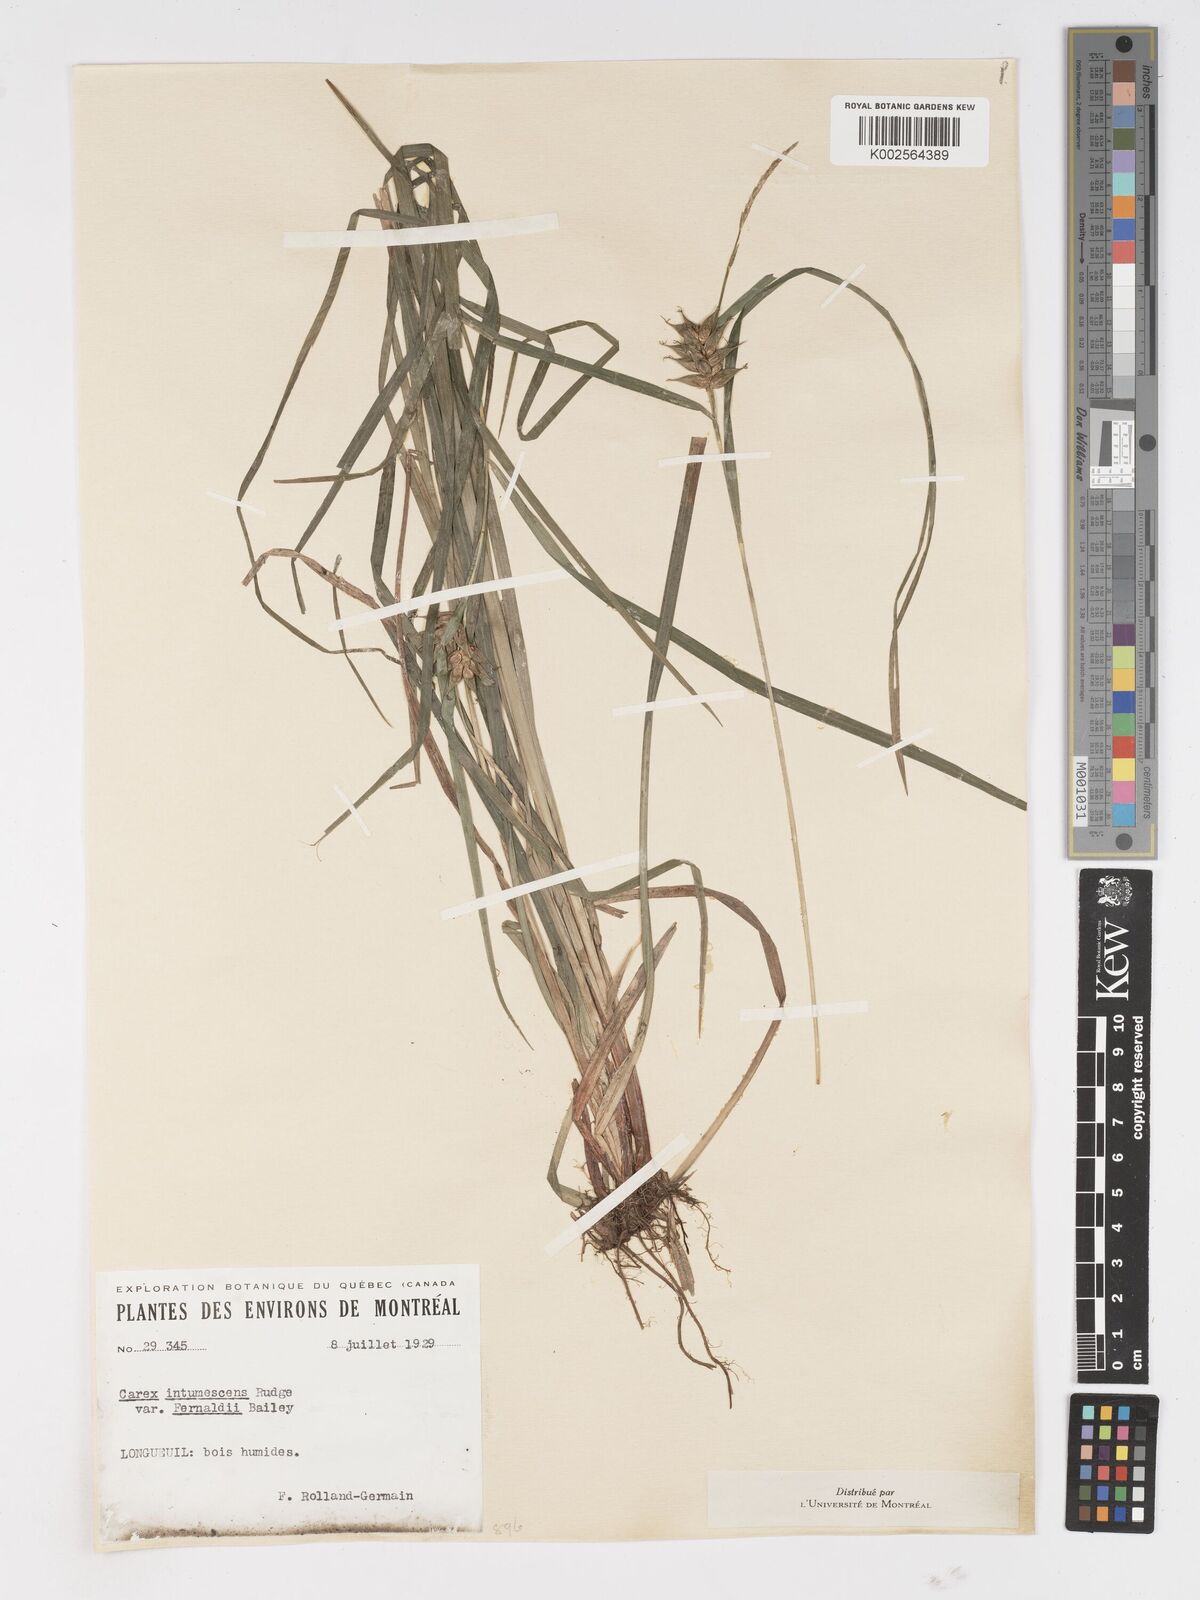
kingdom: Plantae
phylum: Tracheophyta
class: Liliopsida
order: Poales
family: Cyperaceae
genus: Carex
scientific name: Carex intumescens
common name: Greater bladder sedge
